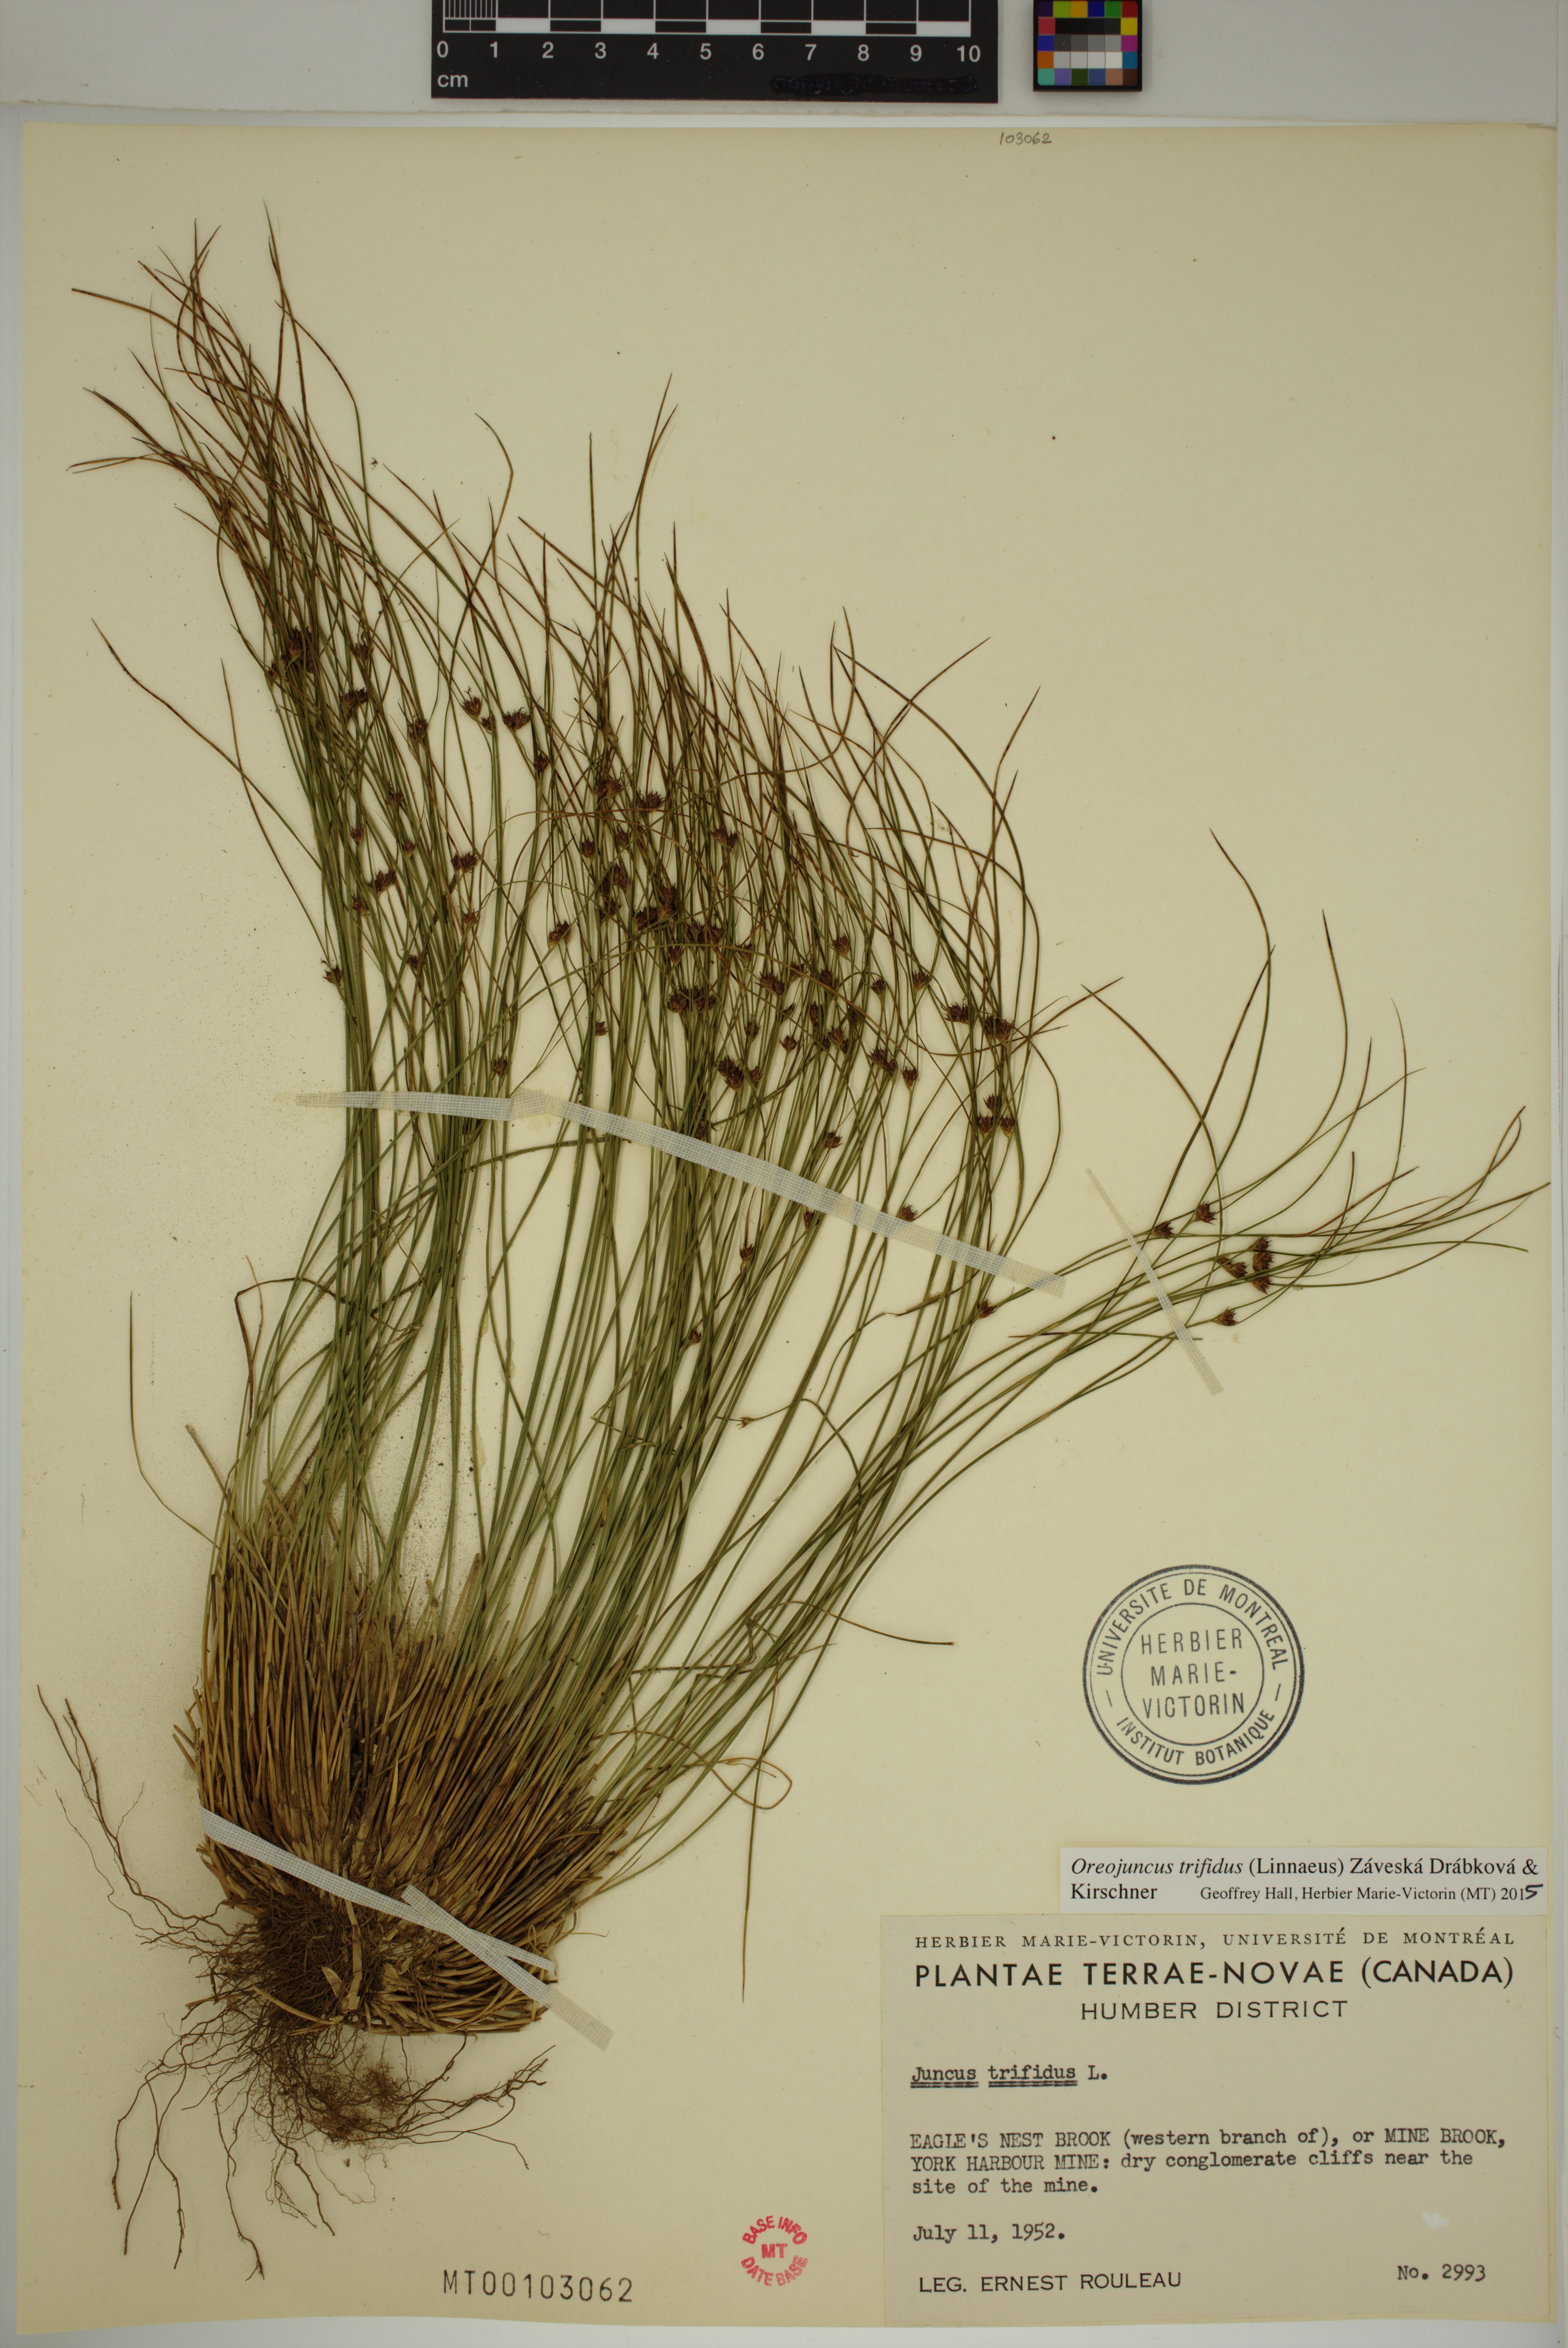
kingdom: Plantae
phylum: Tracheophyta
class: Liliopsida
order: Poales
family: Juncaceae
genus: Oreojuncus
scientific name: Oreojuncus trifidus
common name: Highland rush
